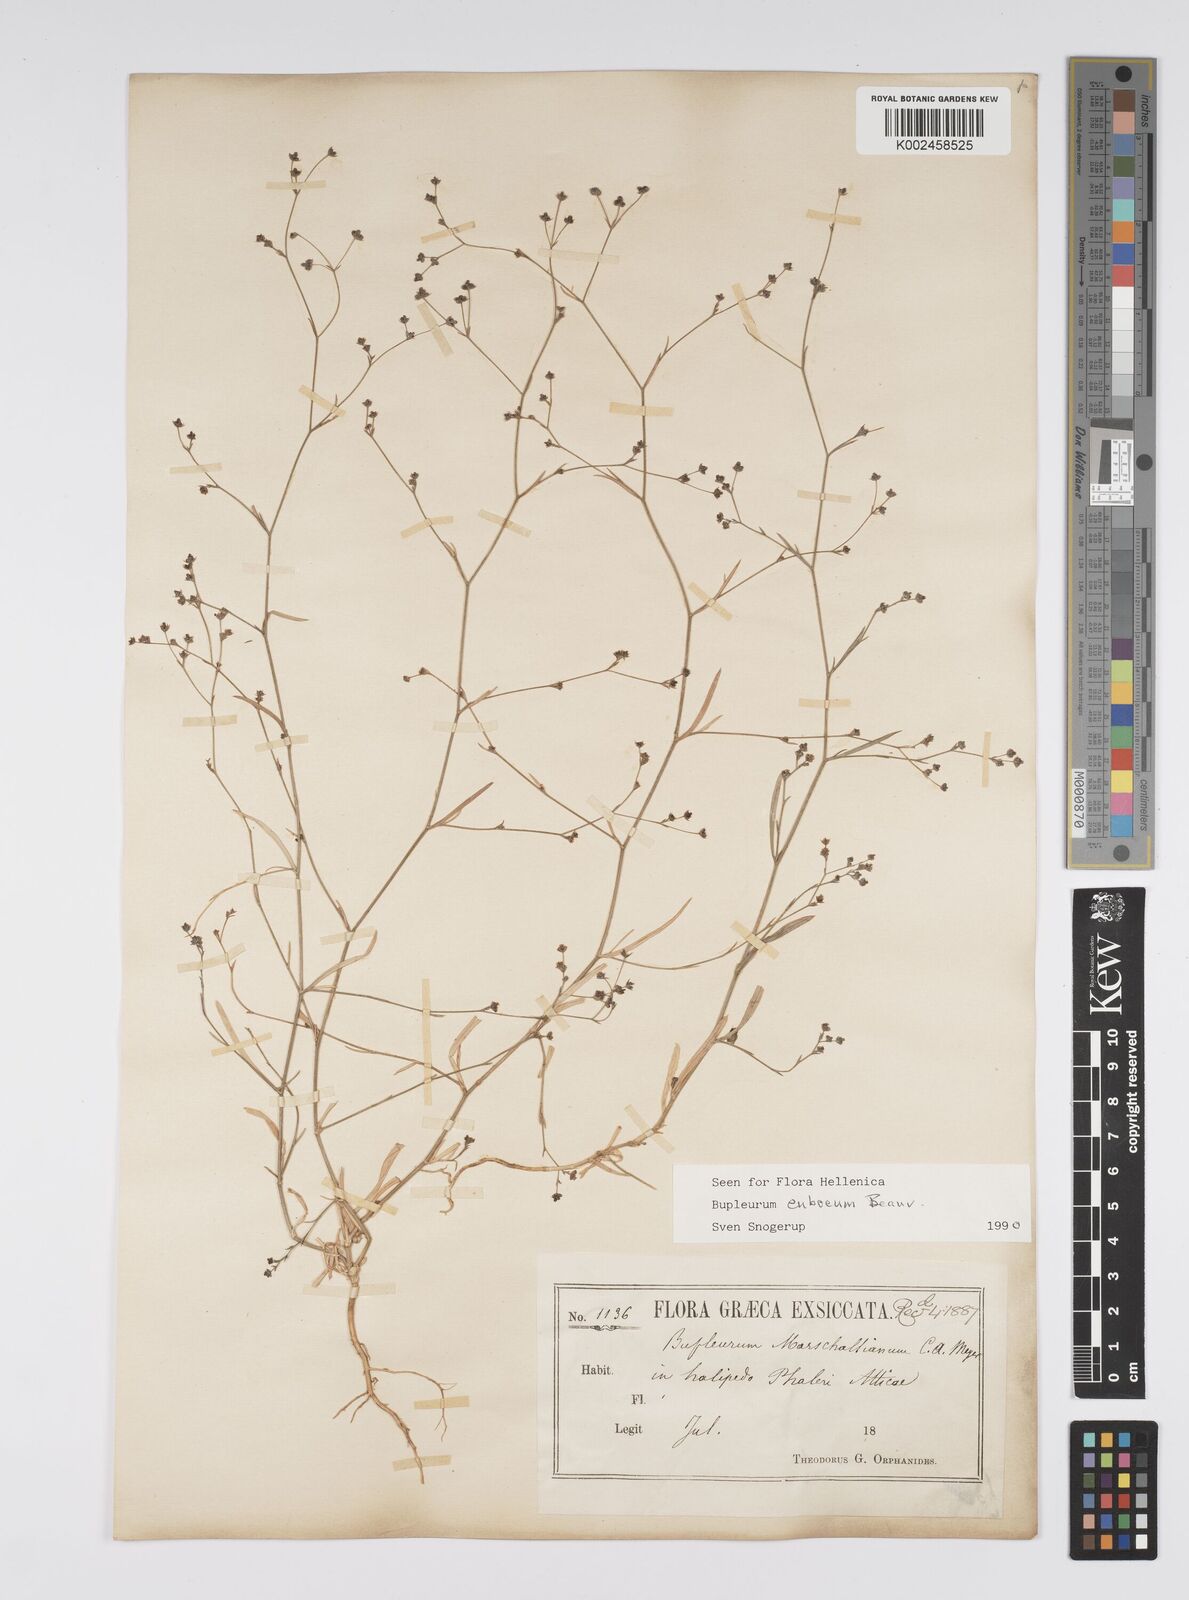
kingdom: Plantae
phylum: Tracheophyta
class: Magnoliopsida
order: Apiales
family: Apiaceae
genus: Bupleurum
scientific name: Bupleurum tenuissimum
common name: Slender hare's-ear
